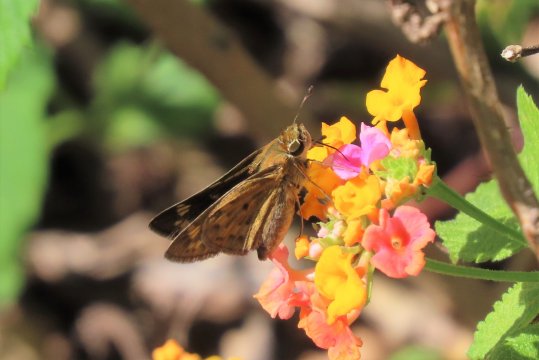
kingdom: Animalia
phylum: Arthropoda
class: Insecta
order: Lepidoptera
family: Hesperiidae
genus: Hylephila
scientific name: Hylephila phyleus
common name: Fiery Skipper
